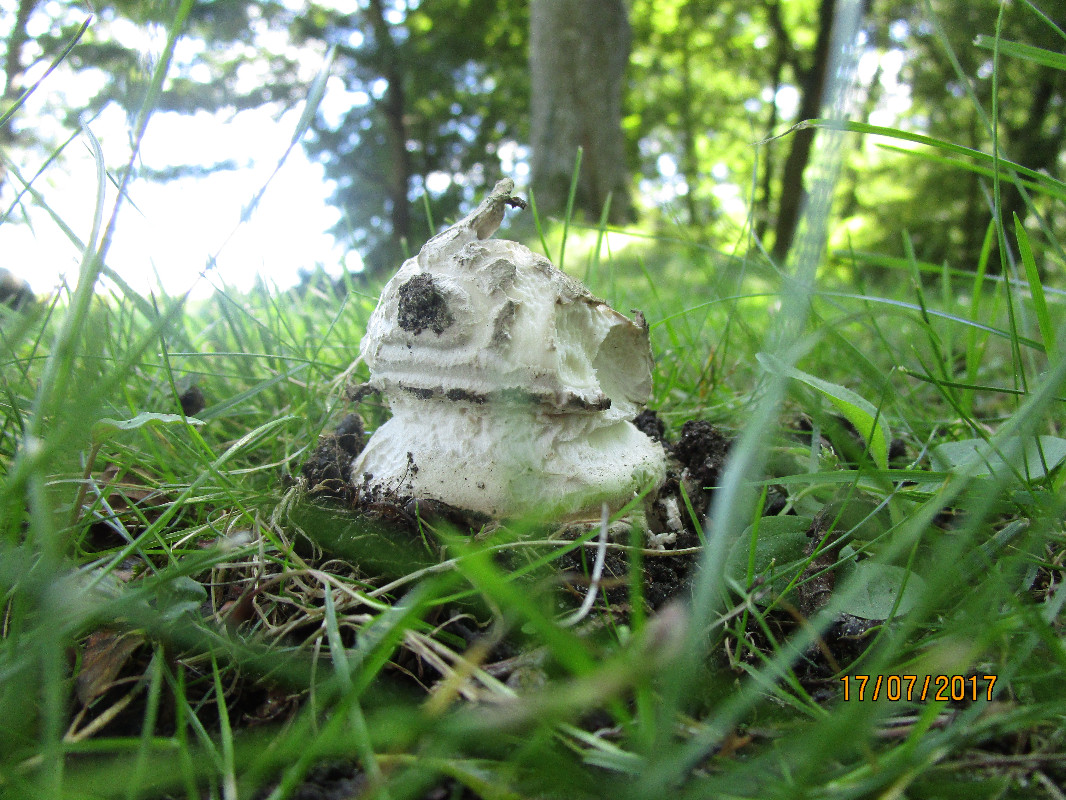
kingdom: Fungi
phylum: Basidiomycota
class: Agaricomycetes
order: Agaricales
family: Amanitaceae
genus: Amanita
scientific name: Amanita
